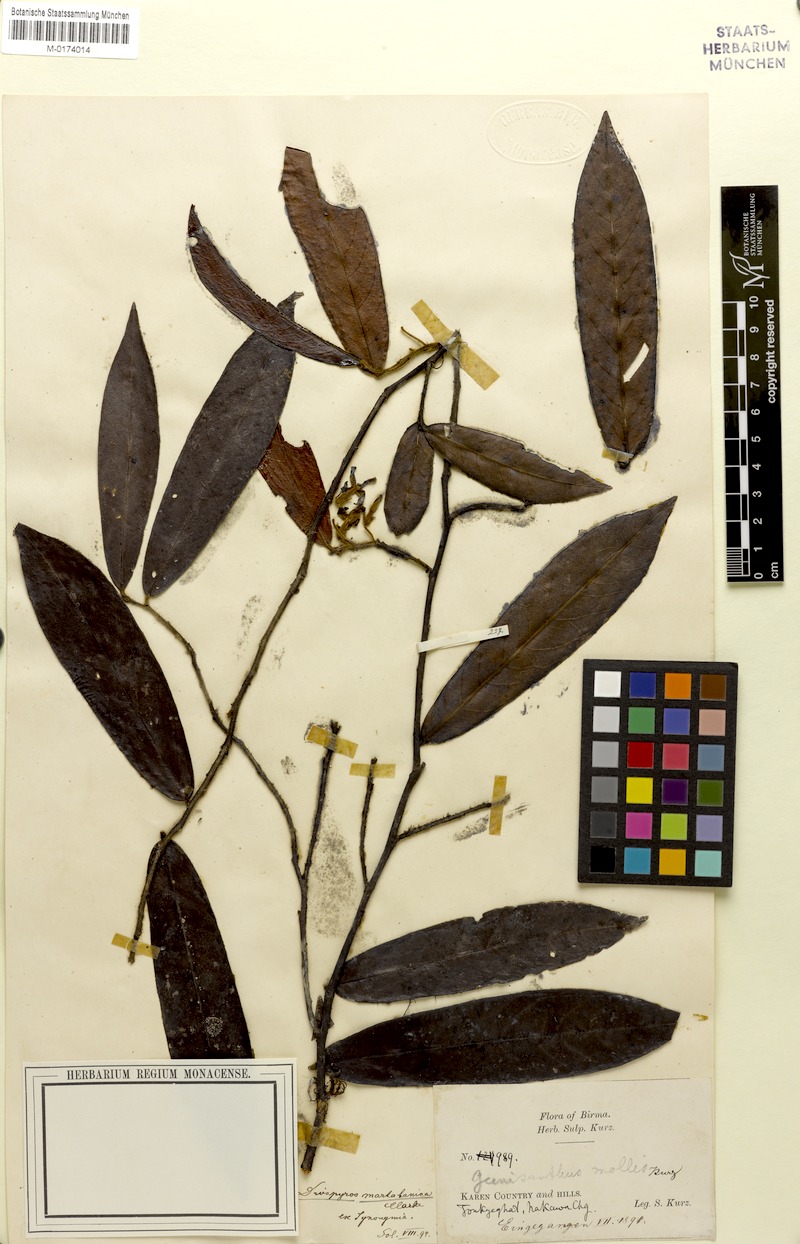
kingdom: Plantae
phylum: Tracheophyta
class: Magnoliopsida
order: Ericales
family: Ebenaceae
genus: Diospyros
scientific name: Diospyros martabanica
